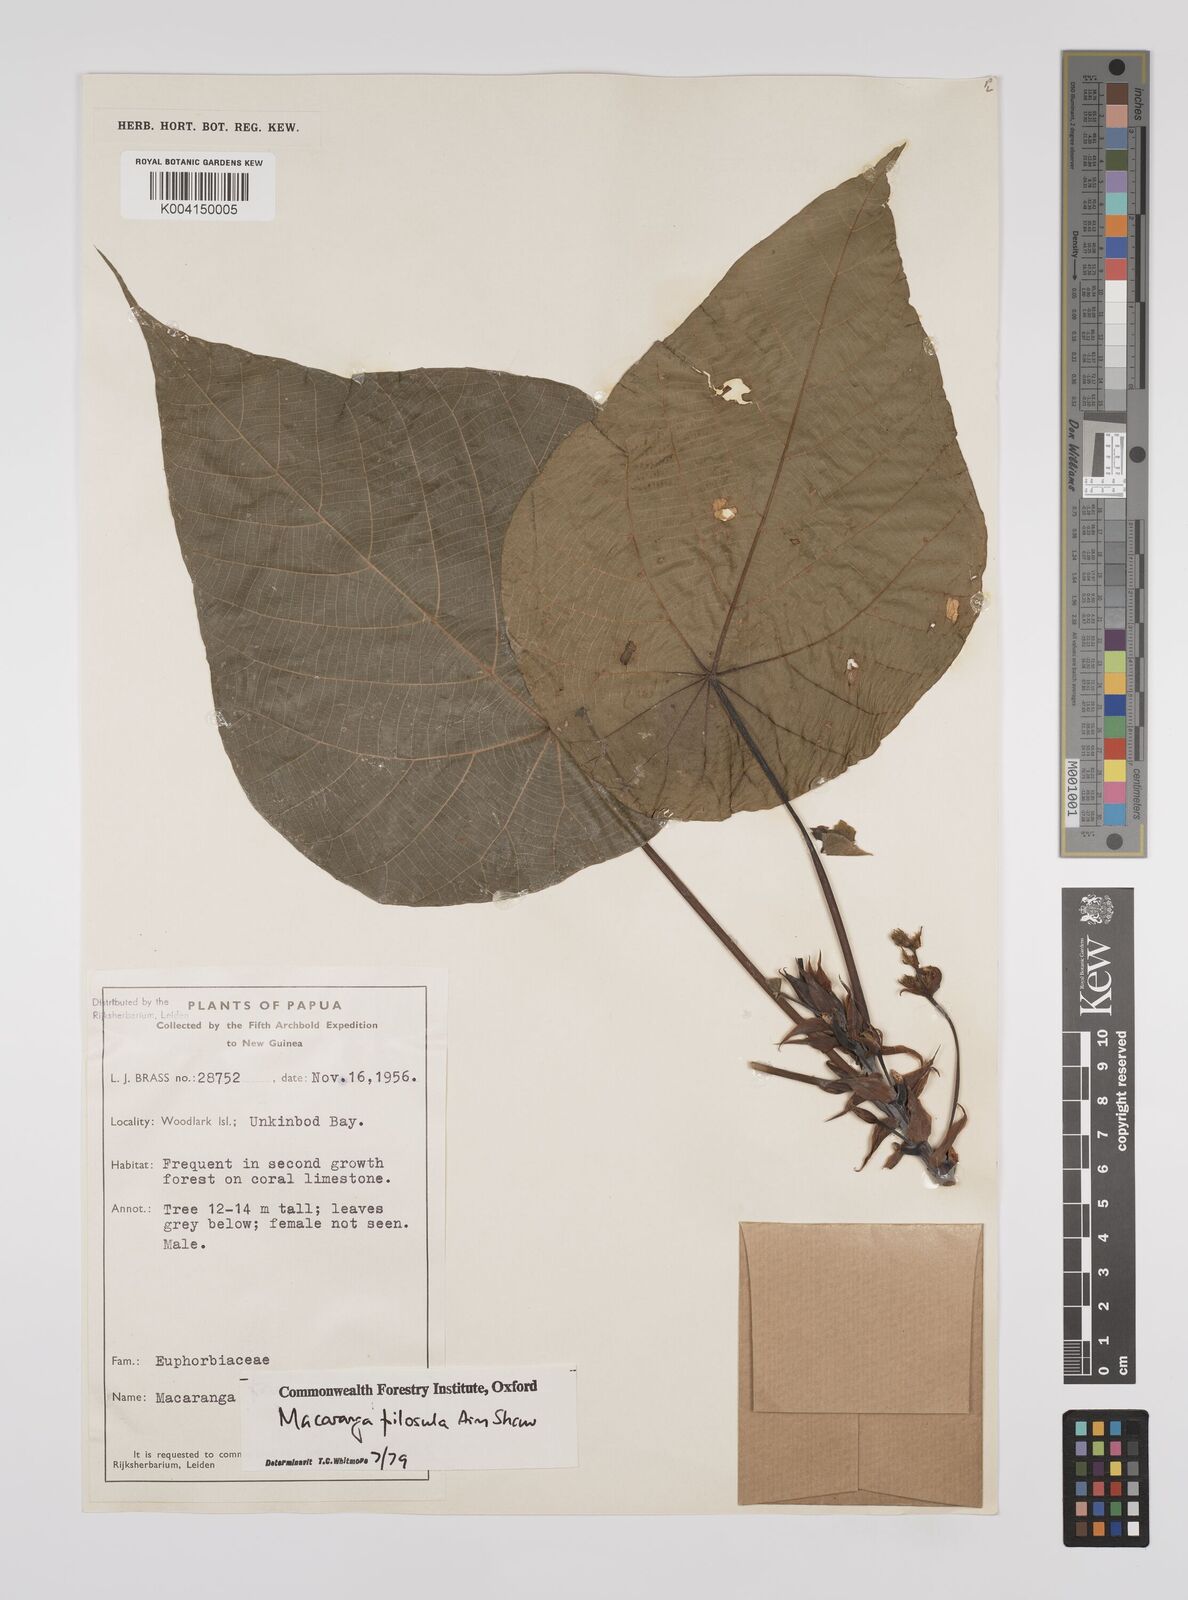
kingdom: Plantae
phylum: Tracheophyta
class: Magnoliopsida
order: Malpighiales
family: Euphorbiaceae
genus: Macaranga
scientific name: Macaranga pilosula
